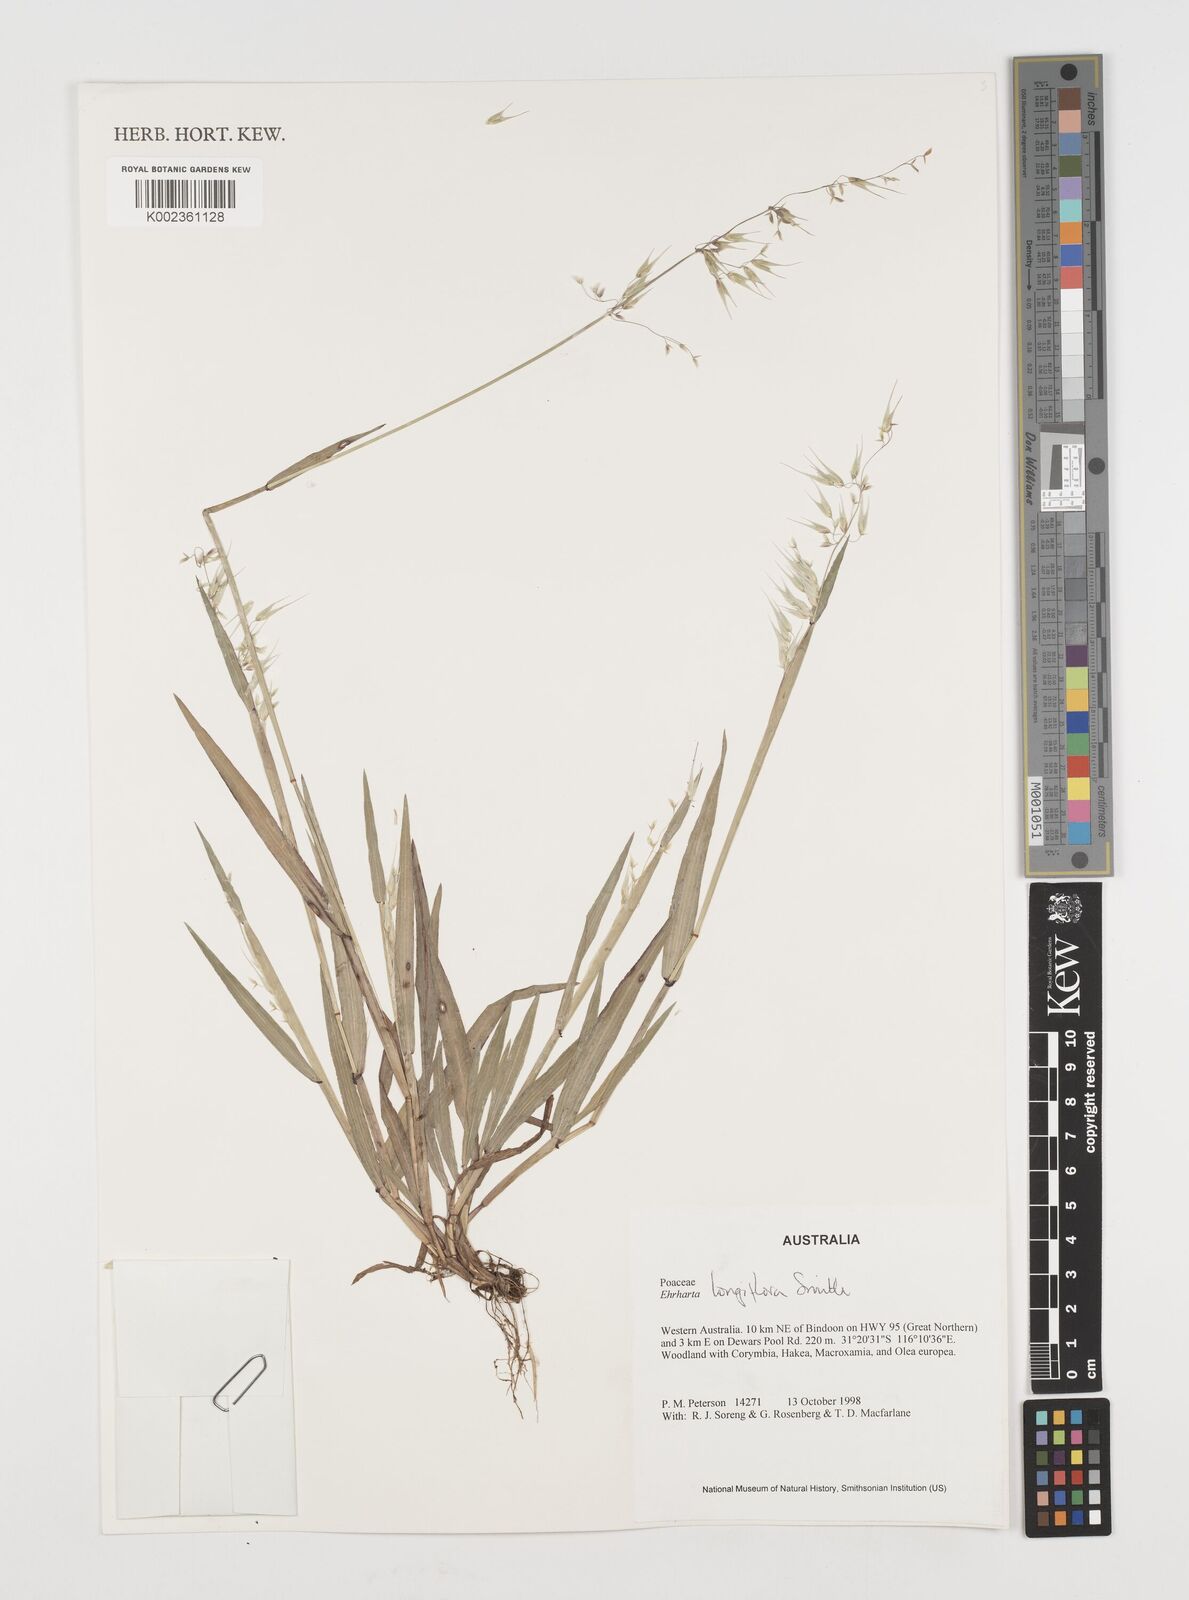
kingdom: Plantae
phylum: Tracheophyta
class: Liliopsida
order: Poales
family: Poaceae
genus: Ehrharta
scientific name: Ehrharta longiflora
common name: Longflowered veldtgrass
